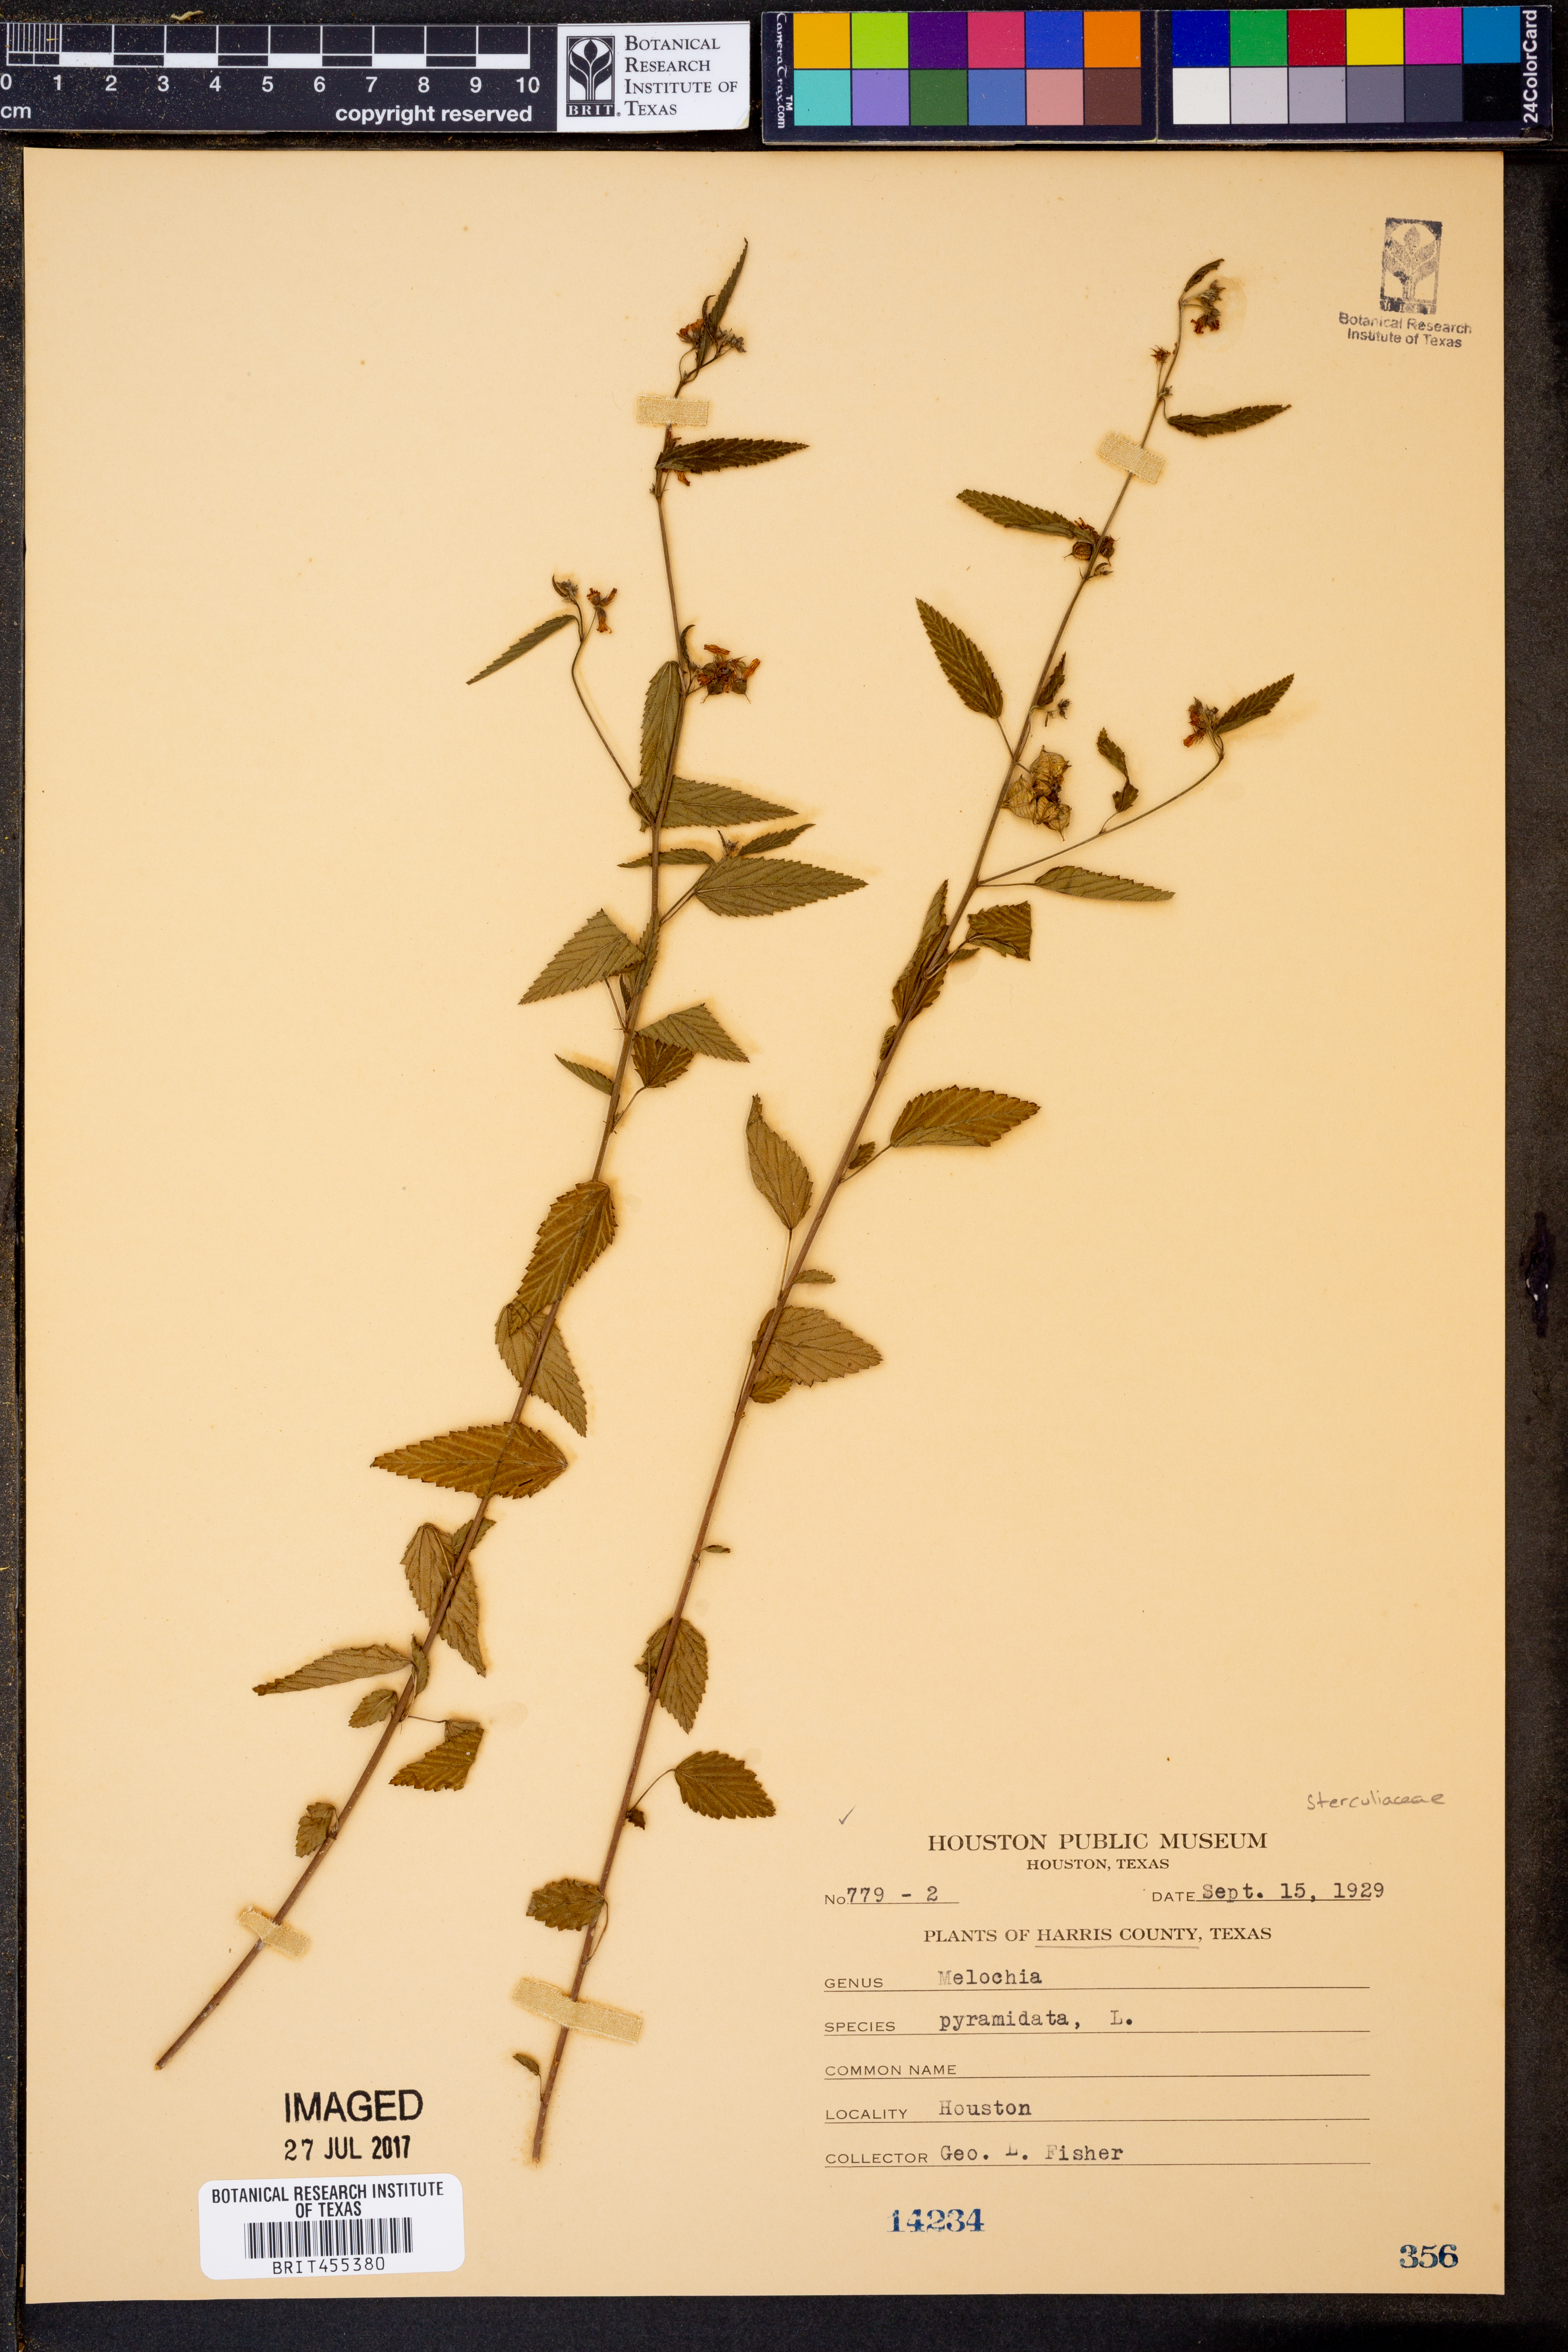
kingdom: Plantae
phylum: Tracheophyta
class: Magnoliopsida
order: Malvales
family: Malvaceae
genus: Melochia
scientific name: Melochia pyramidata
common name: Pyramidflower
